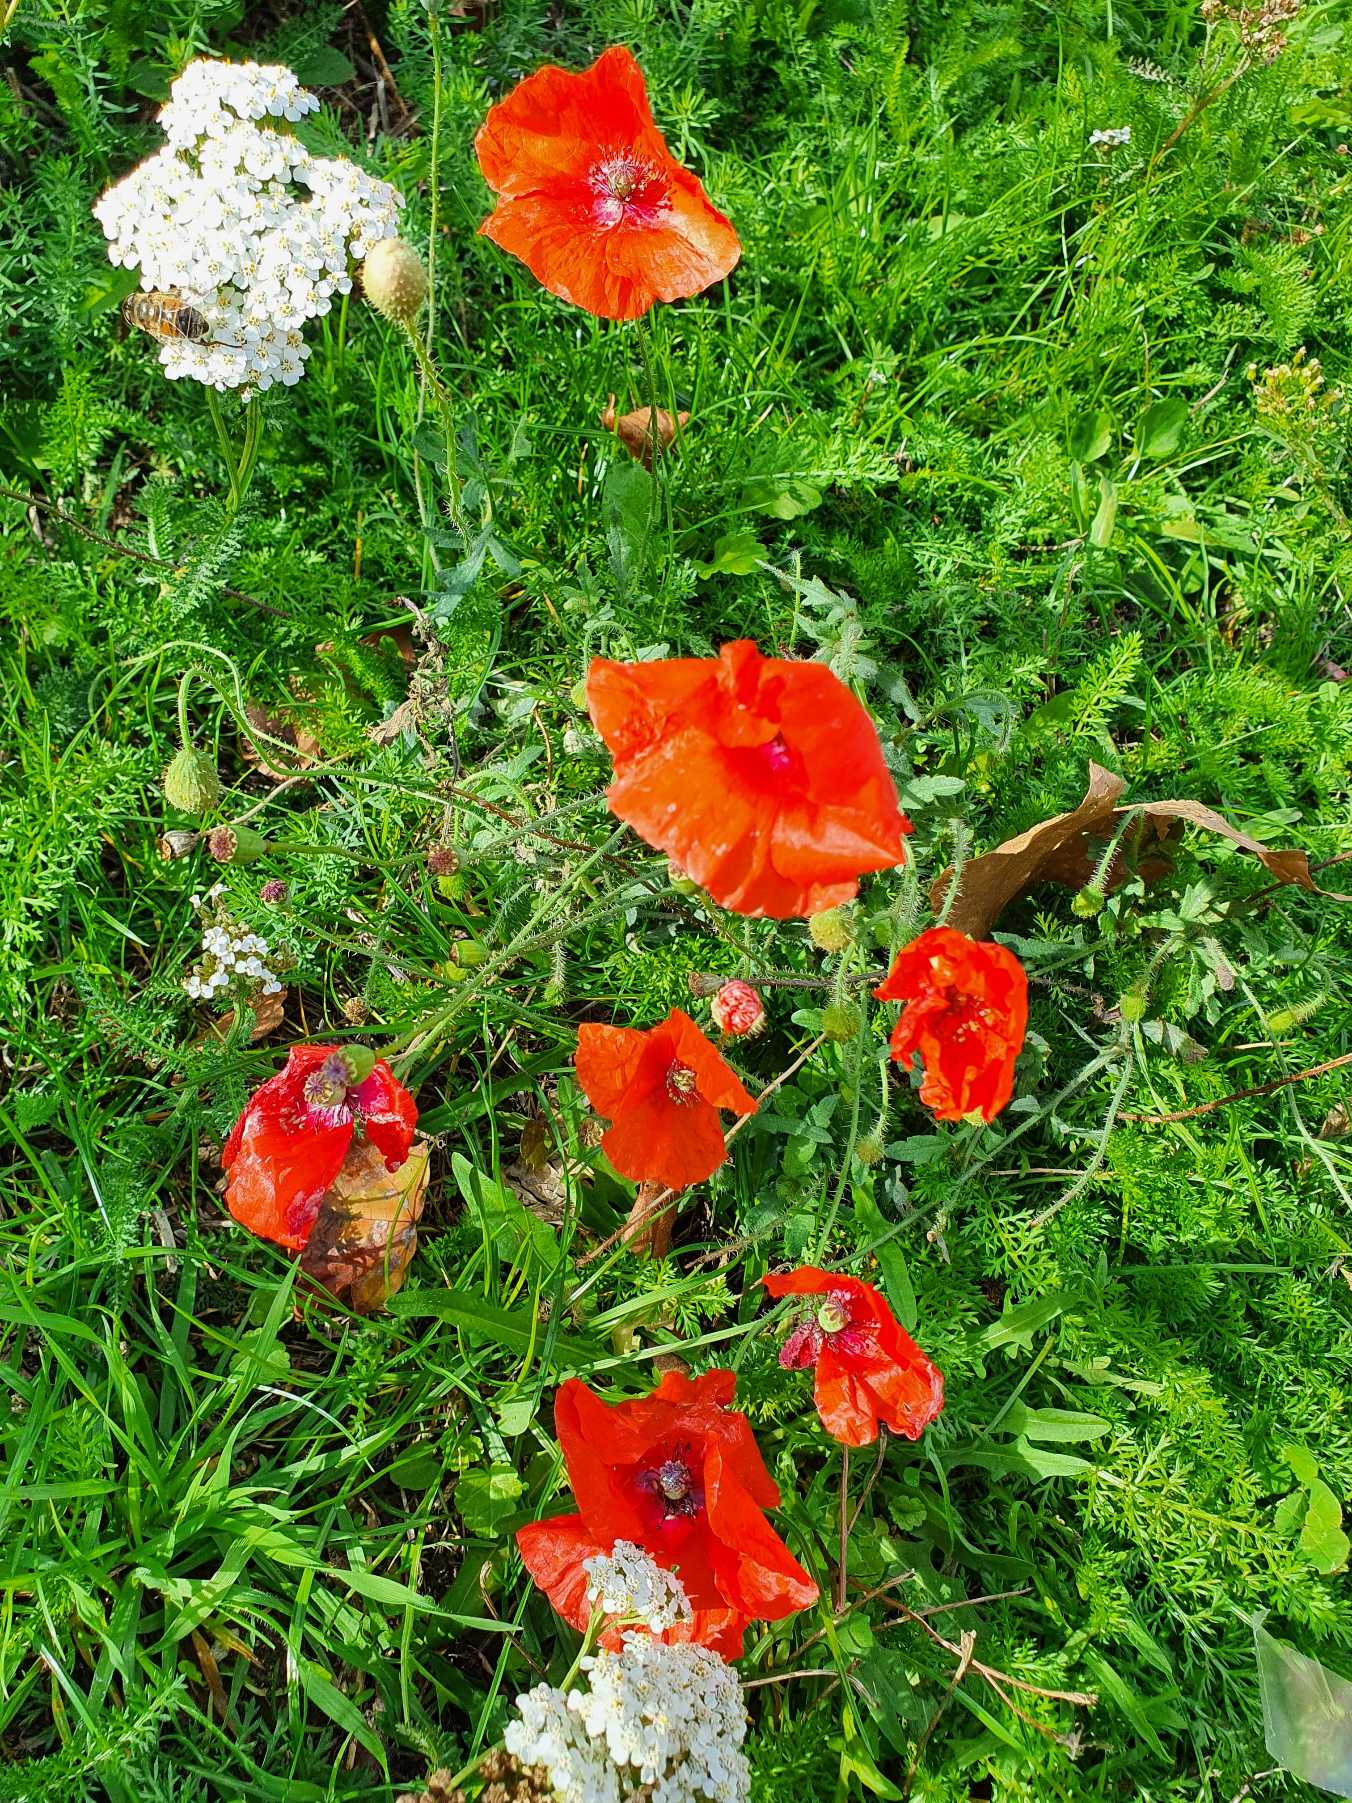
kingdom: Plantae
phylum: Tracheophyta
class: Magnoliopsida
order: Ranunculales
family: Papaveraceae
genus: Papaver
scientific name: Papaver rhoeas
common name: Korn-valmue
